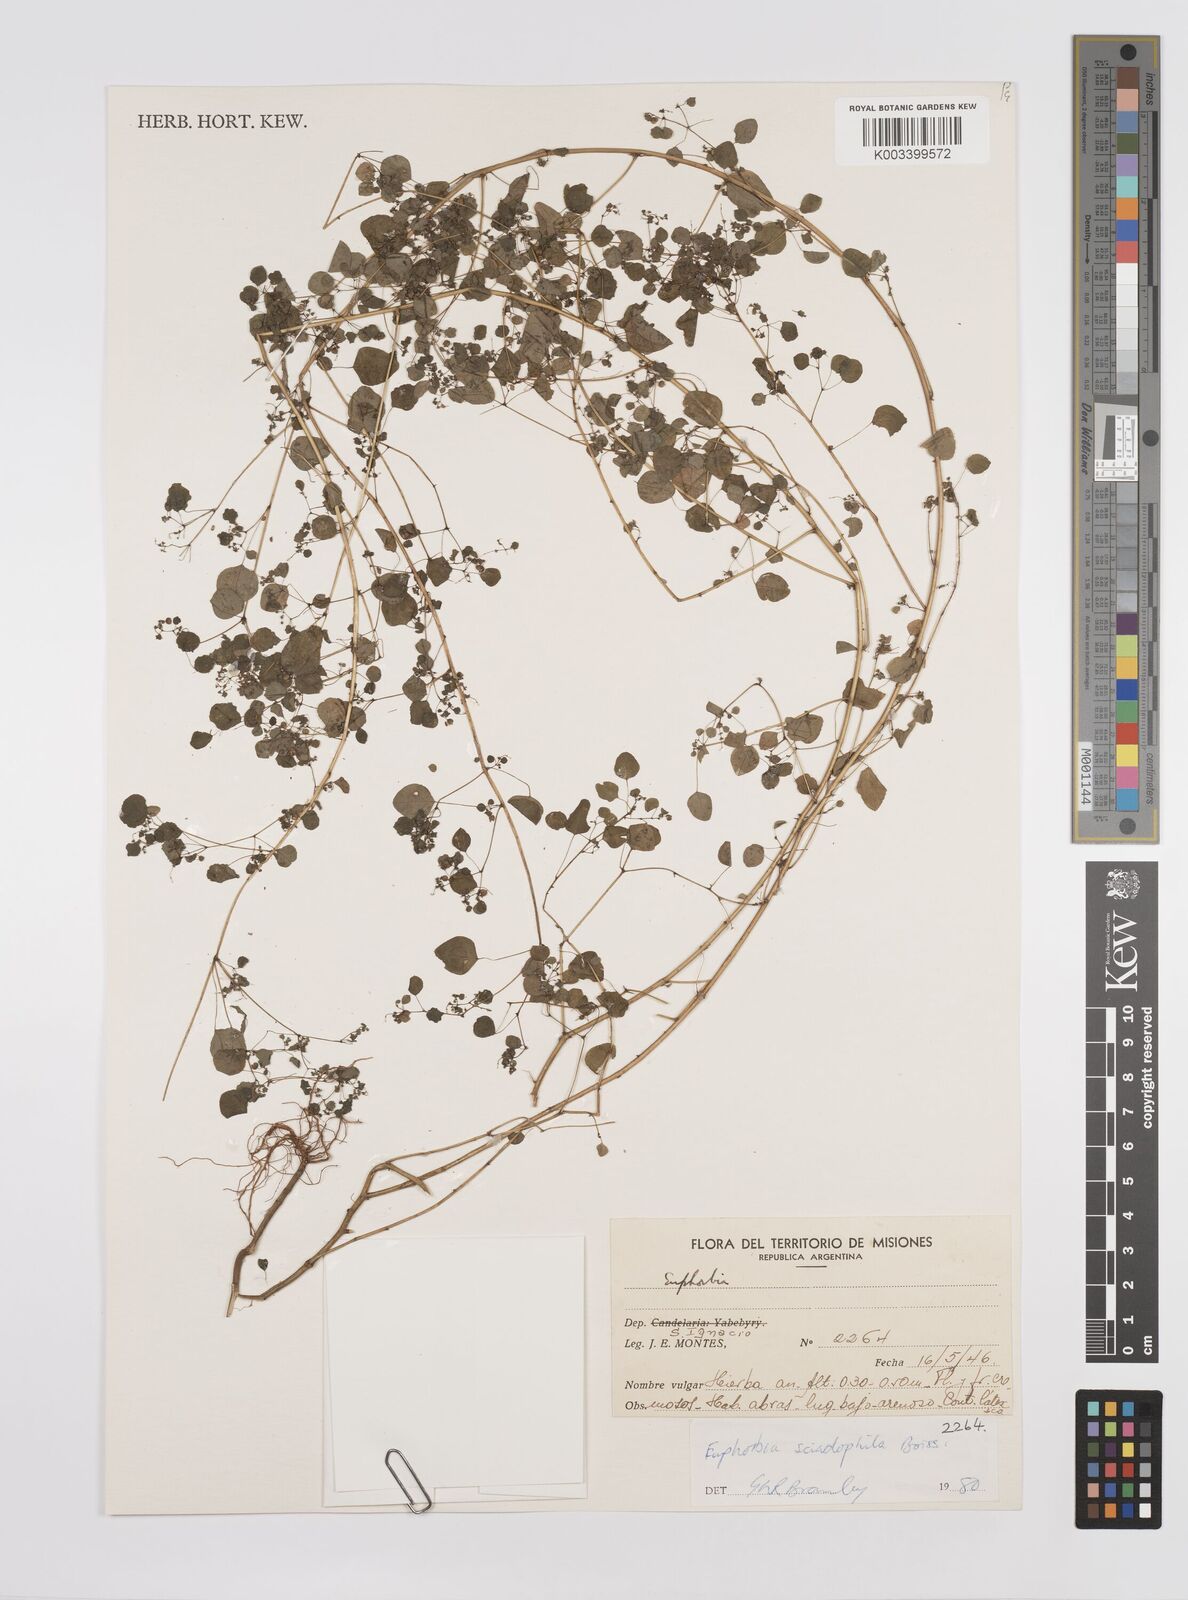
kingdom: Plantae
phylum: Tracheophyta
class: Magnoliopsida
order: Malpighiales
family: Euphorbiaceae
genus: Euphorbia
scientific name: Euphorbia sciadophila
